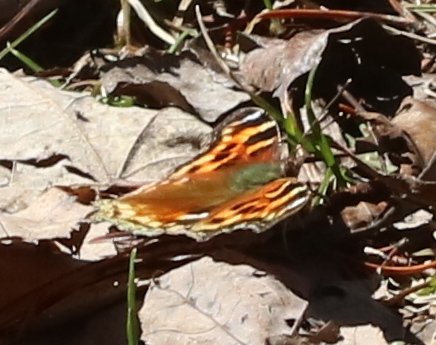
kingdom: Animalia
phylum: Arthropoda
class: Insecta
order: Lepidoptera
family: Nymphalidae
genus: Polygonia
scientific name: Polygonia vaualbum
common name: Compton Tortoiseshell
